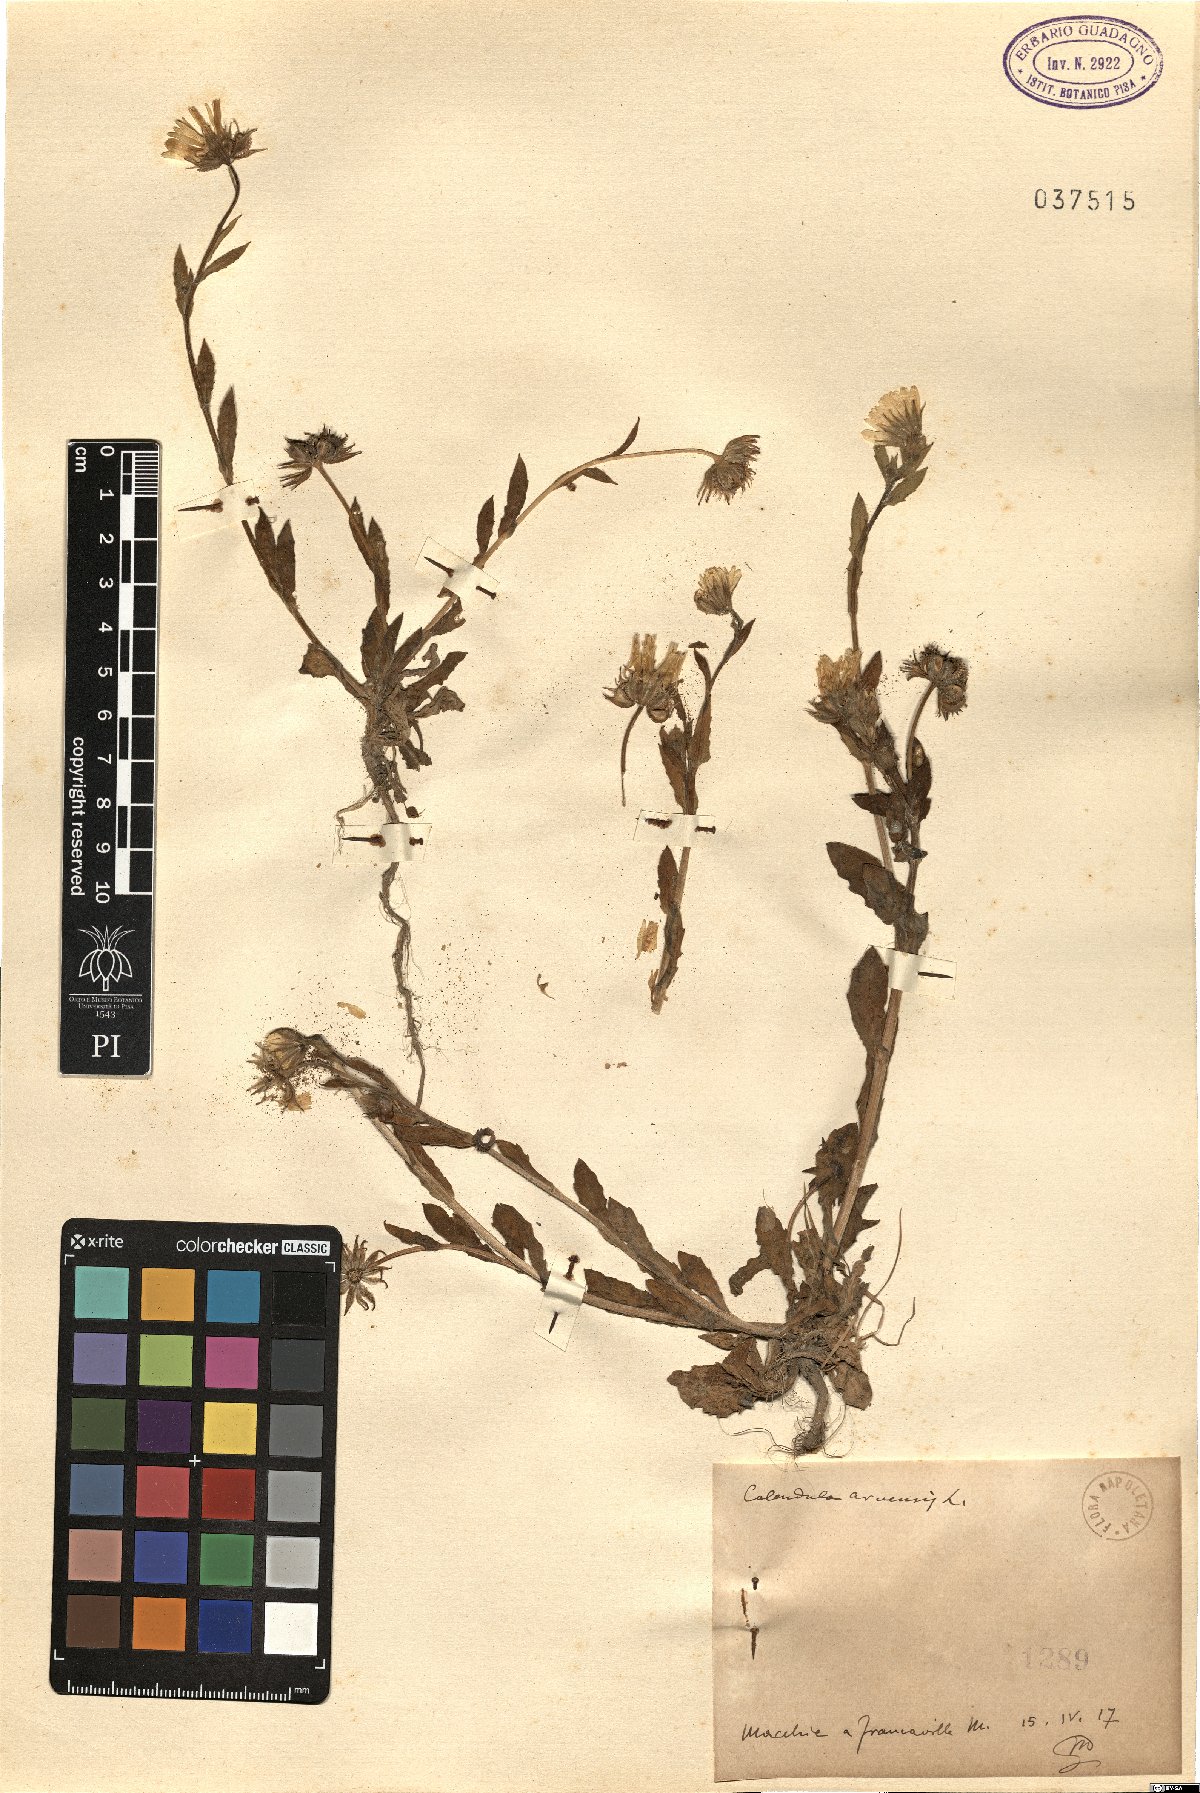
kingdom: Plantae
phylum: Tracheophyta
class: Magnoliopsida
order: Asterales
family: Asteraceae
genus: Calendula
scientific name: Calendula arvensis
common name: Field marigold
